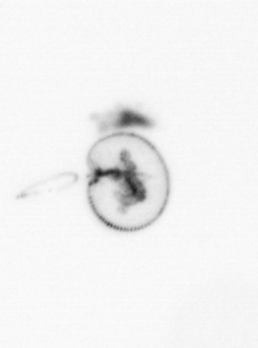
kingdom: Chromista
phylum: Myzozoa
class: Dinophyceae
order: Noctilucales
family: Noctilucaceae
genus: Noctiluca
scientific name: Noctiluca scintillans
